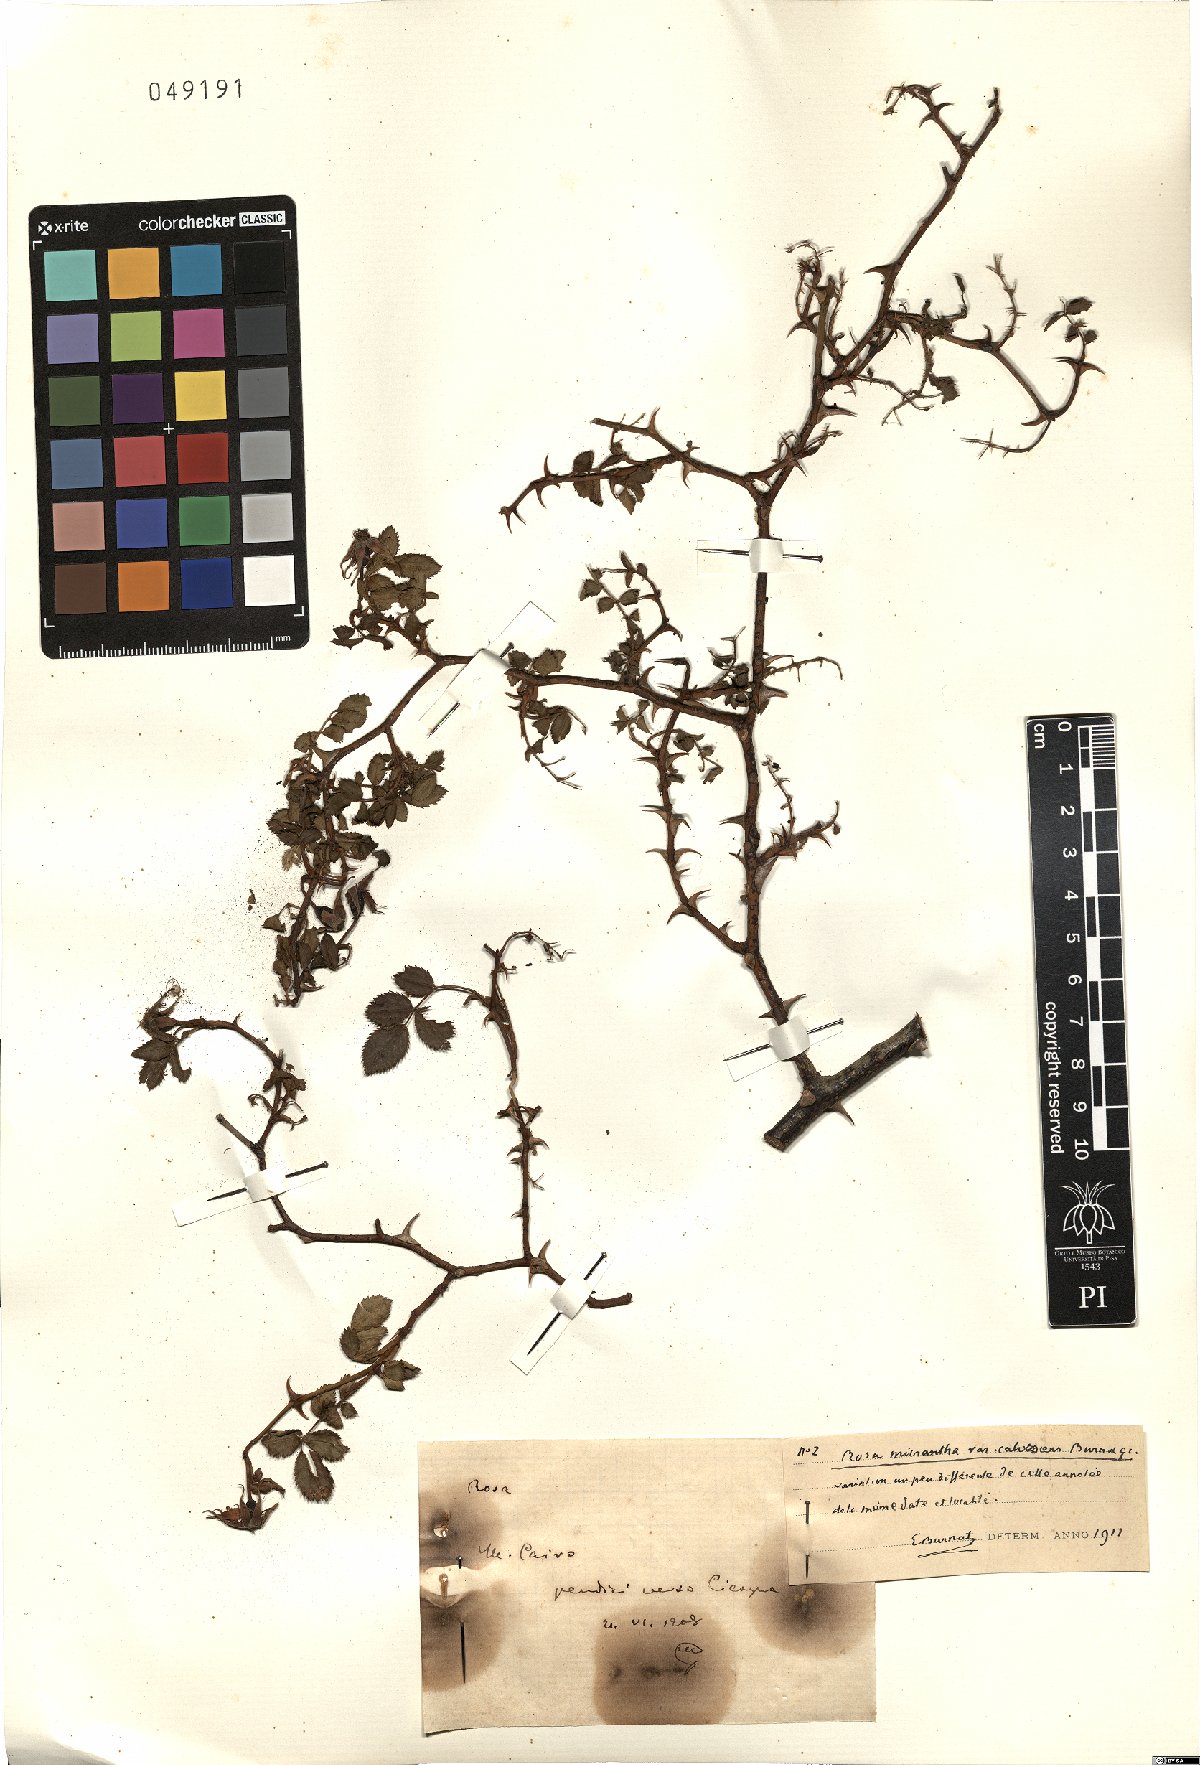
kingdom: Plantae
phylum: Tracheophyta
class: Magnoliopsida
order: Rosales
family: Rosaceae
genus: Rosa
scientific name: Rosa micrantha
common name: Small-flowered sweet-briar
